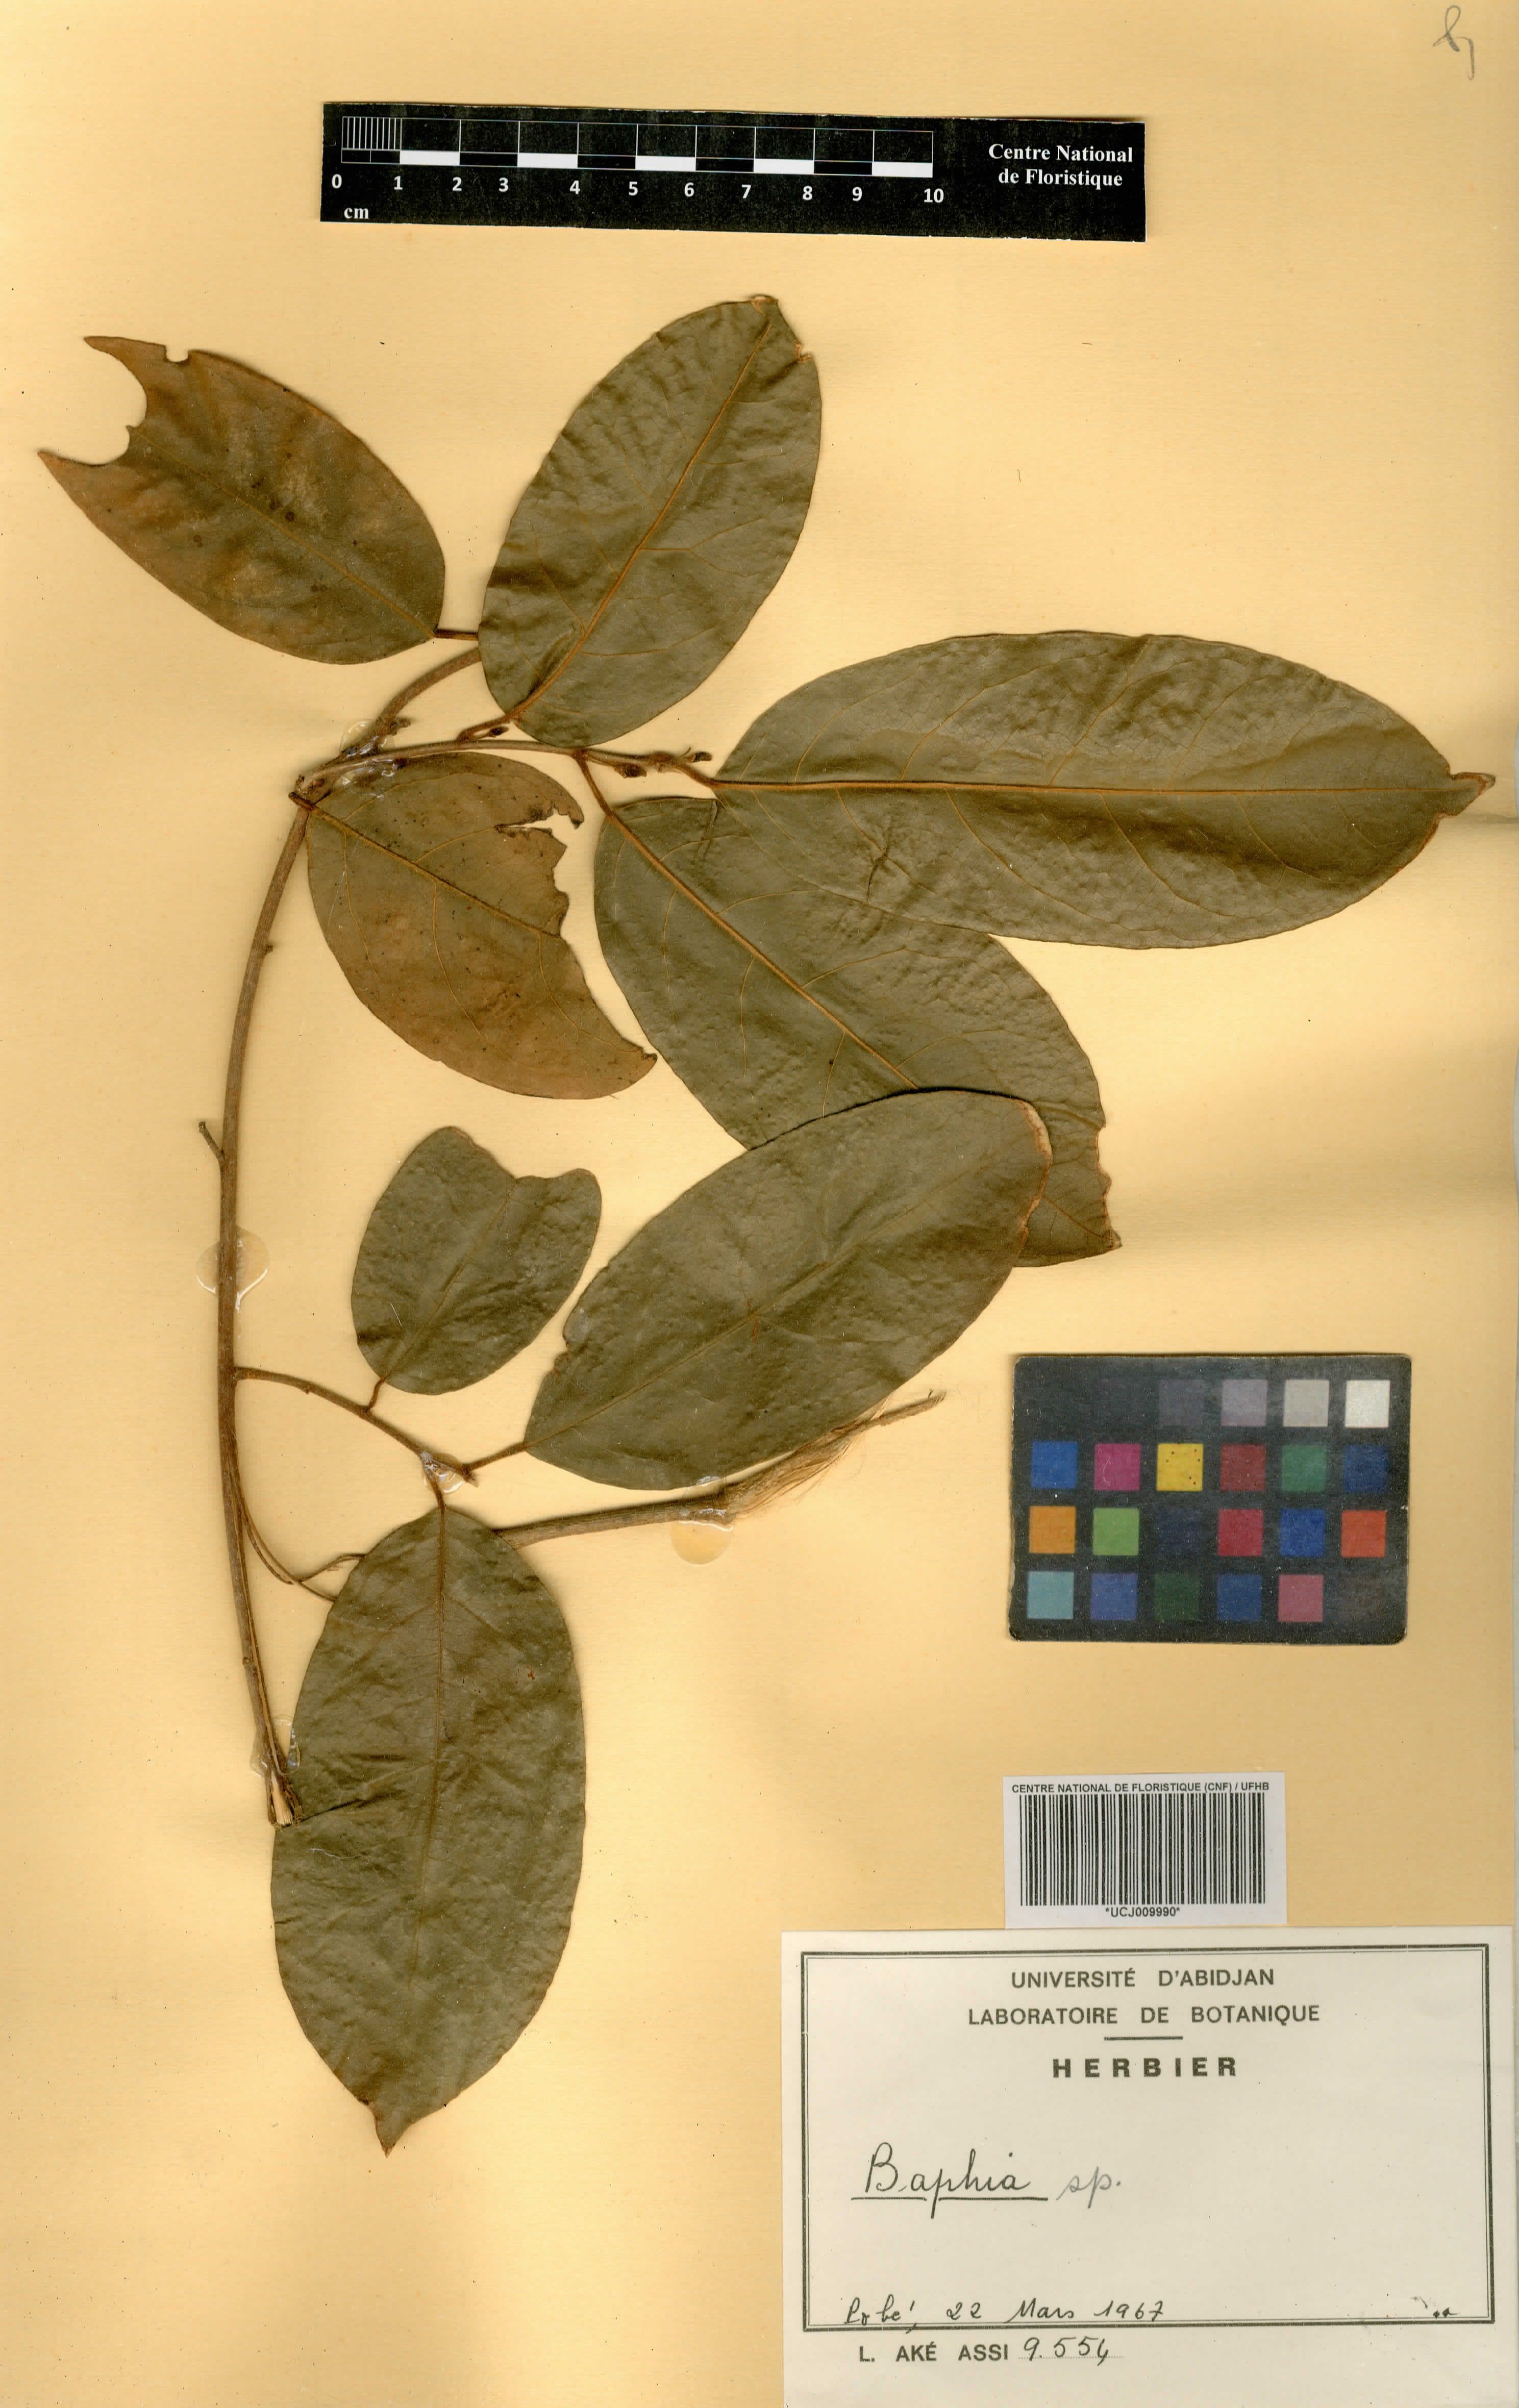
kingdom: Plantae
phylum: Tracheophyta
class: Magnoliopsida
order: Fabales
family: Fabaceae
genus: Baphia
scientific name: Baphia
